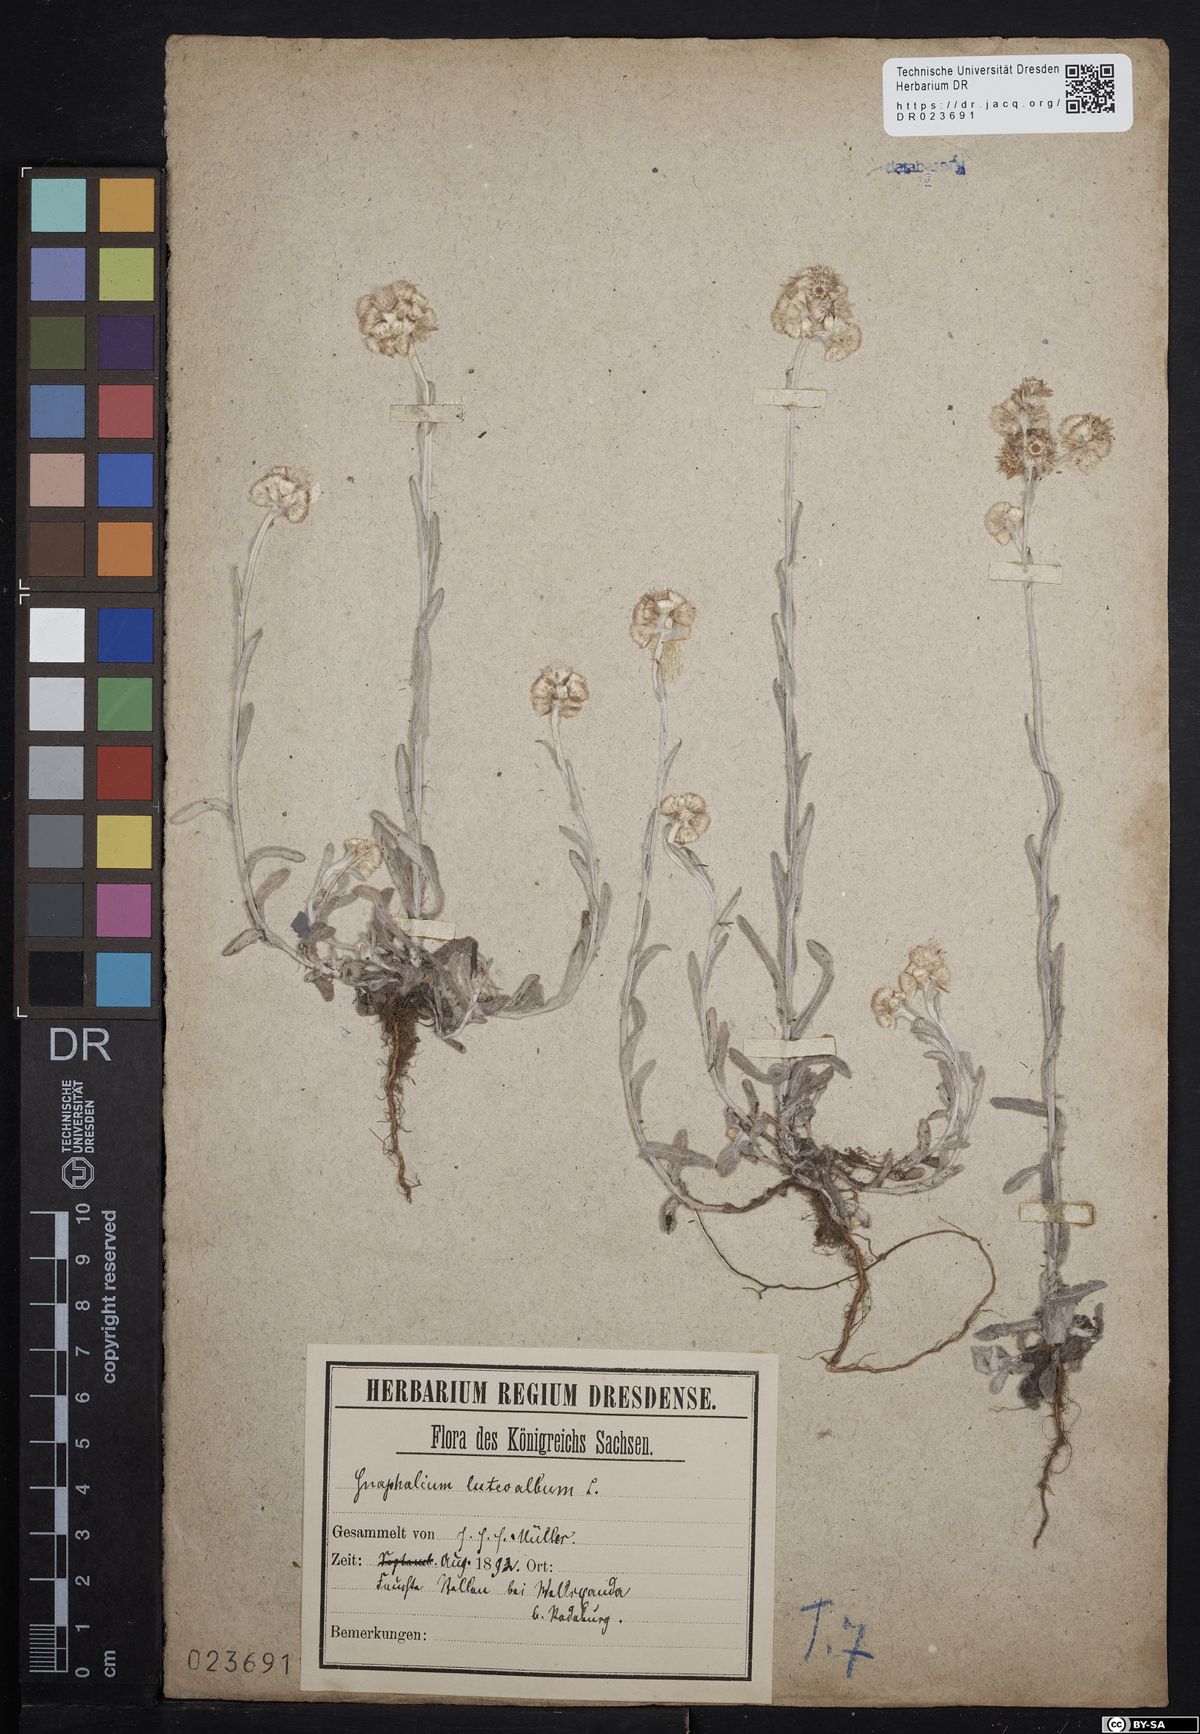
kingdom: Plantae
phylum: Tracheophyta
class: Magnoliopsida
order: Asterales
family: Asteraceae
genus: Helichrysum
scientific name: Helichrysum luteoalbum
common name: Daisy
